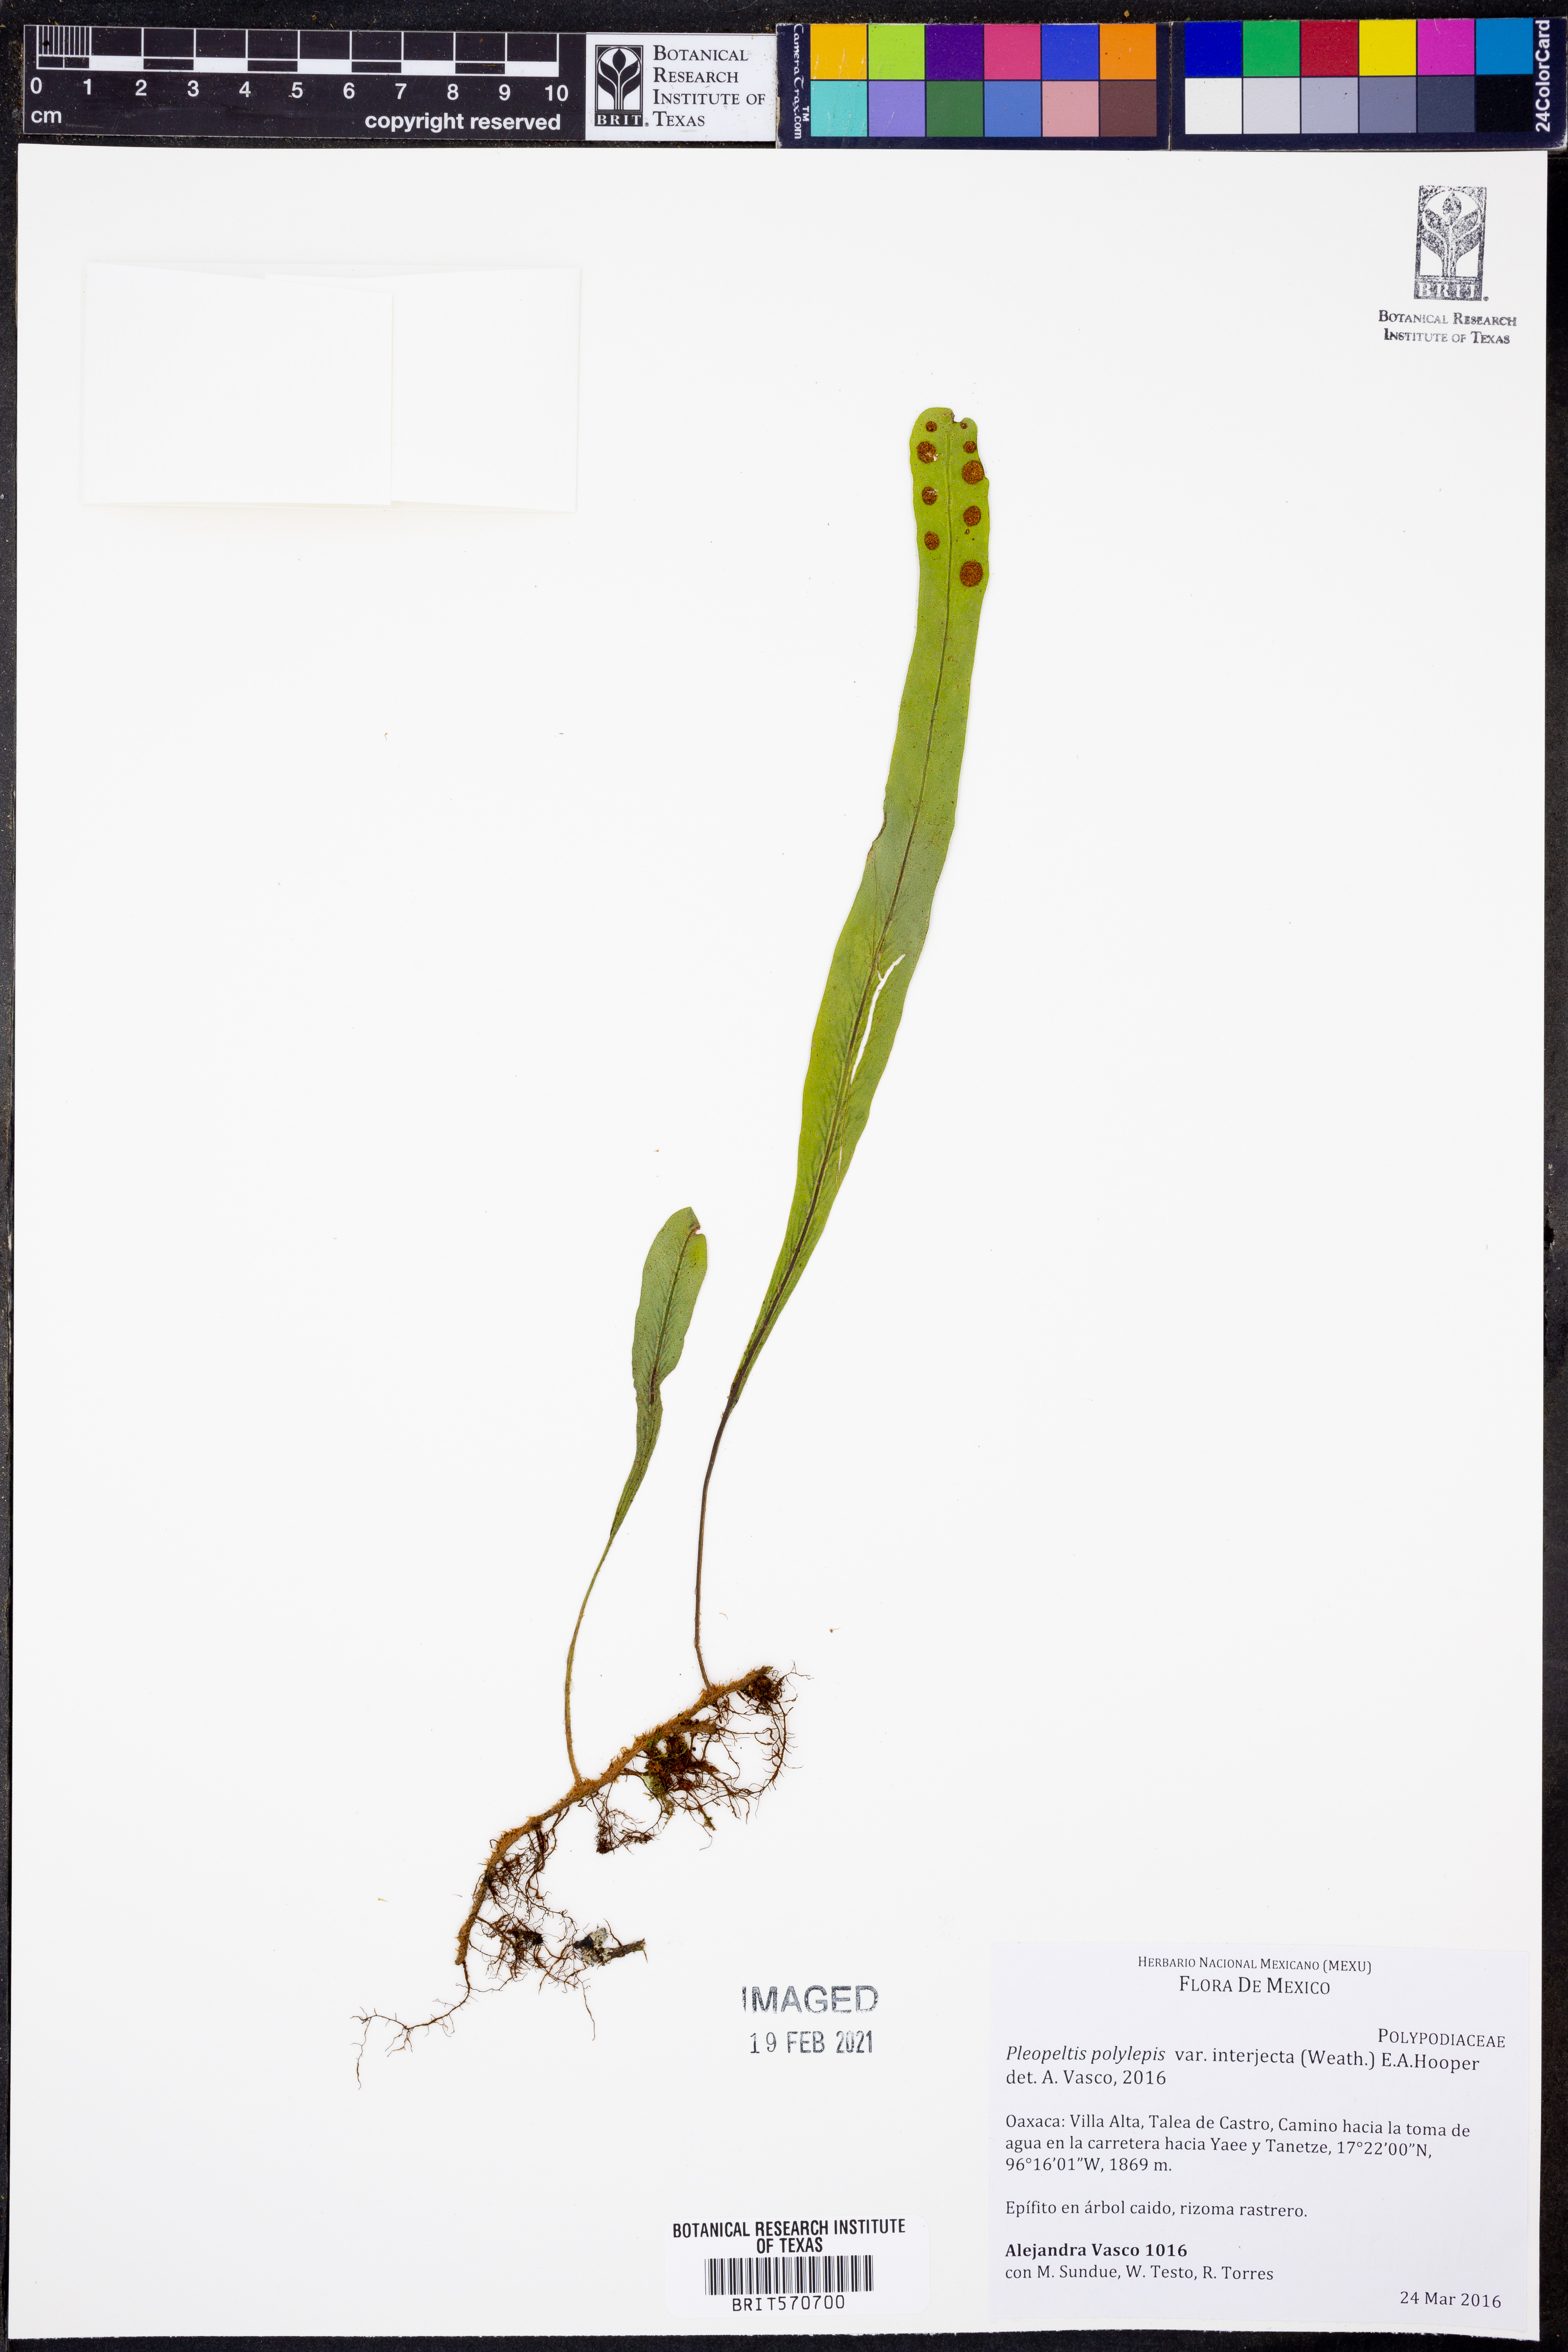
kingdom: Plantae
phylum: Tracheophyta
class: Polypodiopsida
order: Polypodiales
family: Polypodiaceae
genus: Pleopeltis
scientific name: Pleopeltis polylepis
